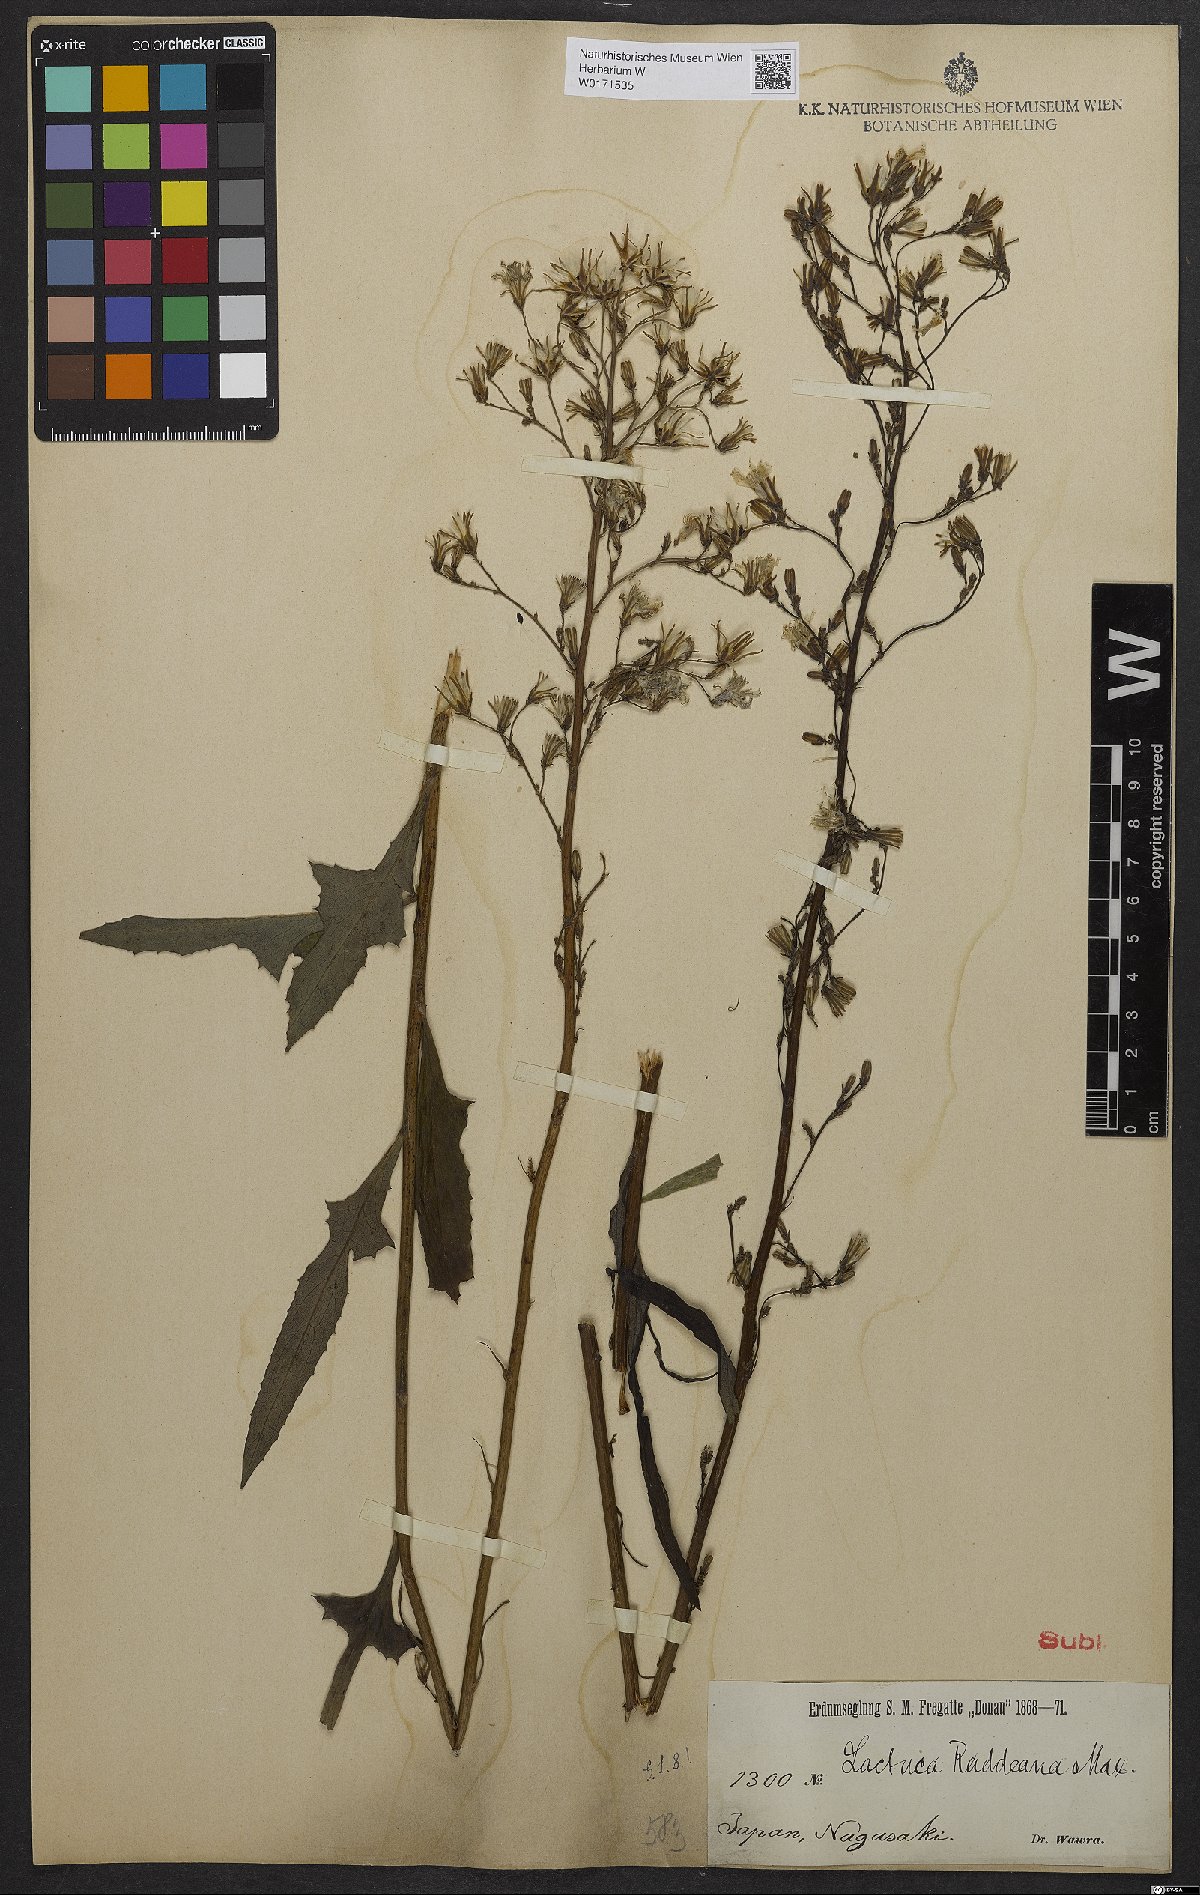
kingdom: Plantae
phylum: Tracheophyta
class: Magnoliopsida
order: Asterales
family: Asteraceae
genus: Lactuca
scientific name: Lactuca raddeana
